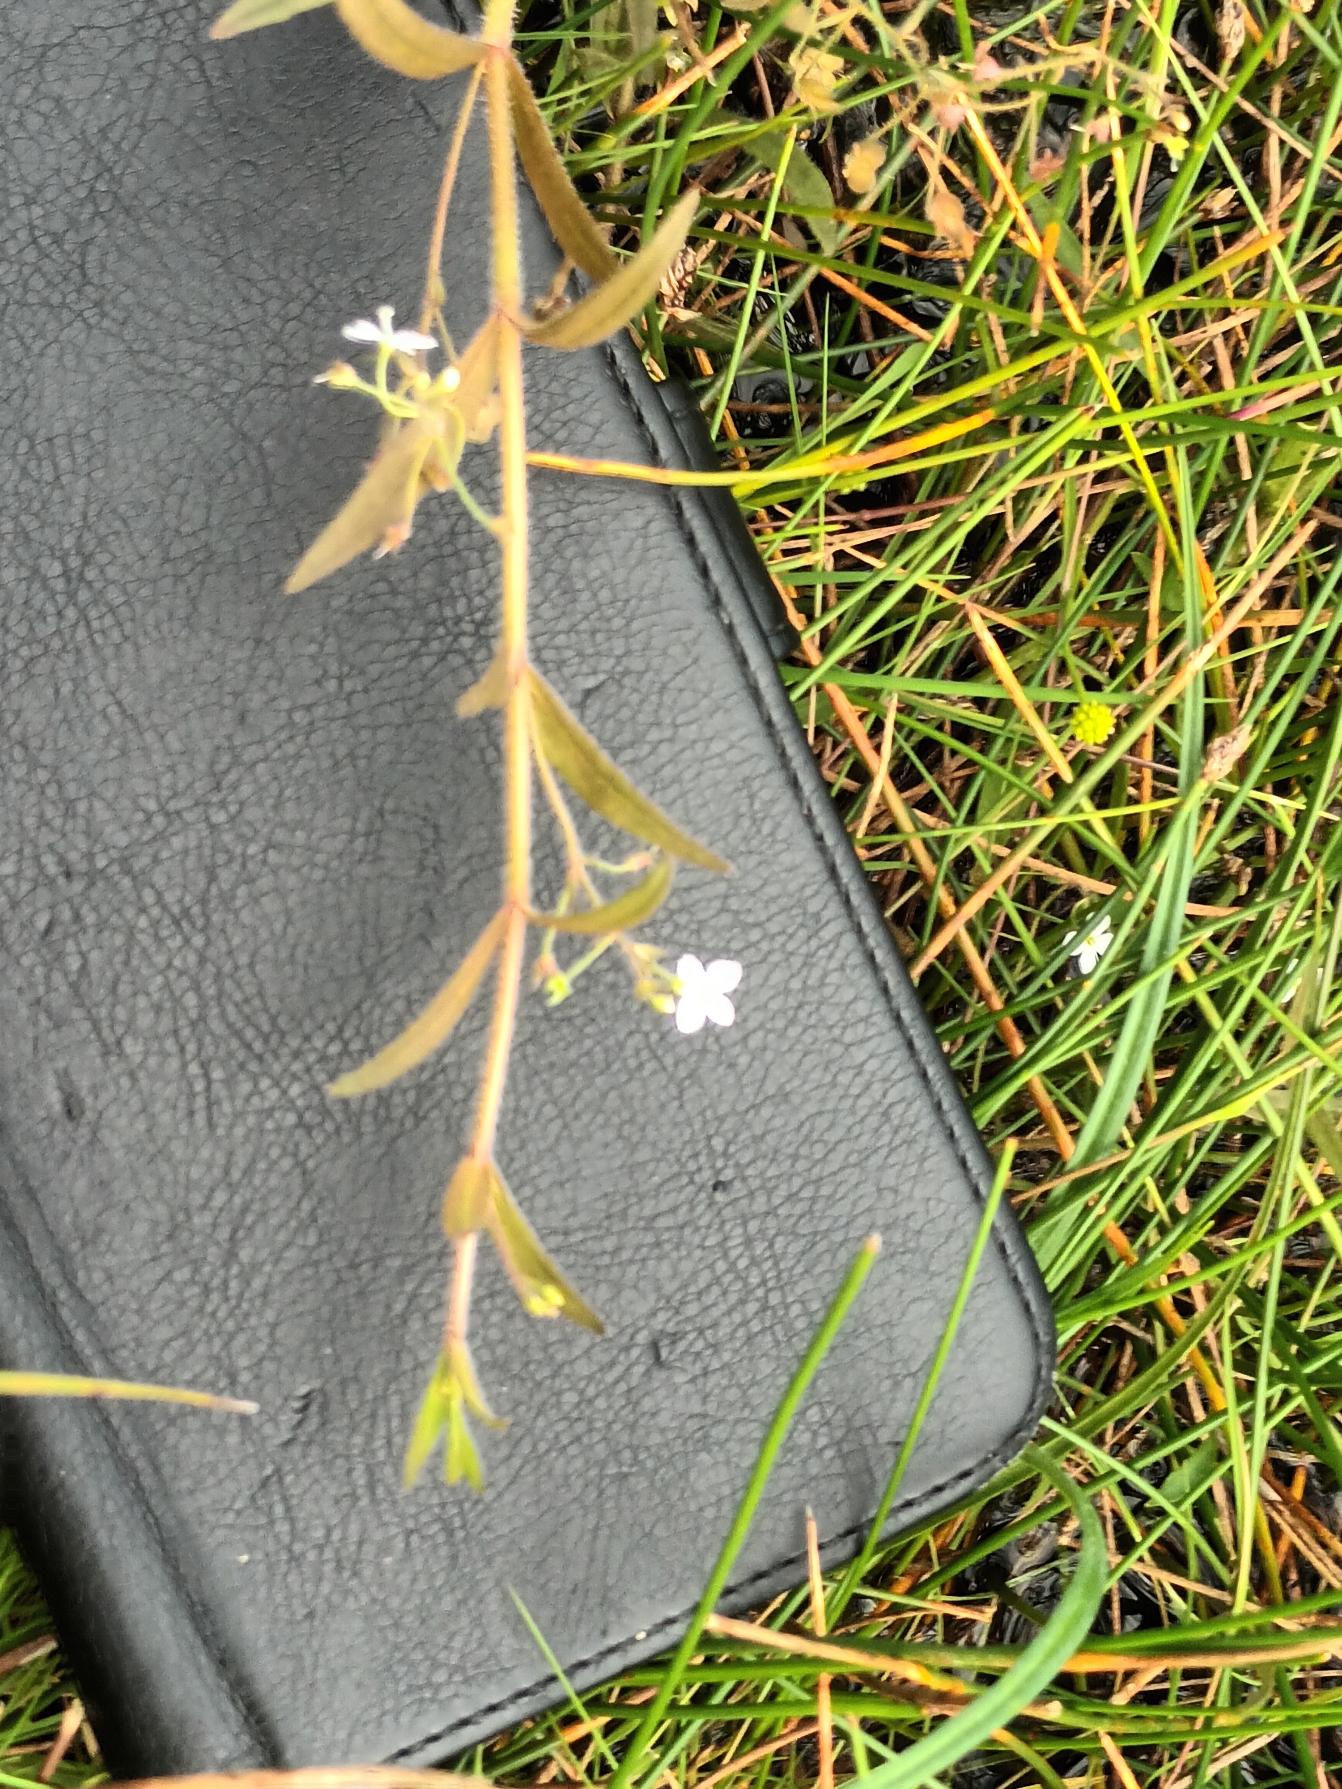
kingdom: Plantae
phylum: Tracheophyta
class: Magnoliopsida
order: Lamiales
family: Plantaginaceae
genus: Veronica
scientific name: Veronica scutellata
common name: Smalbladet ærenpris
